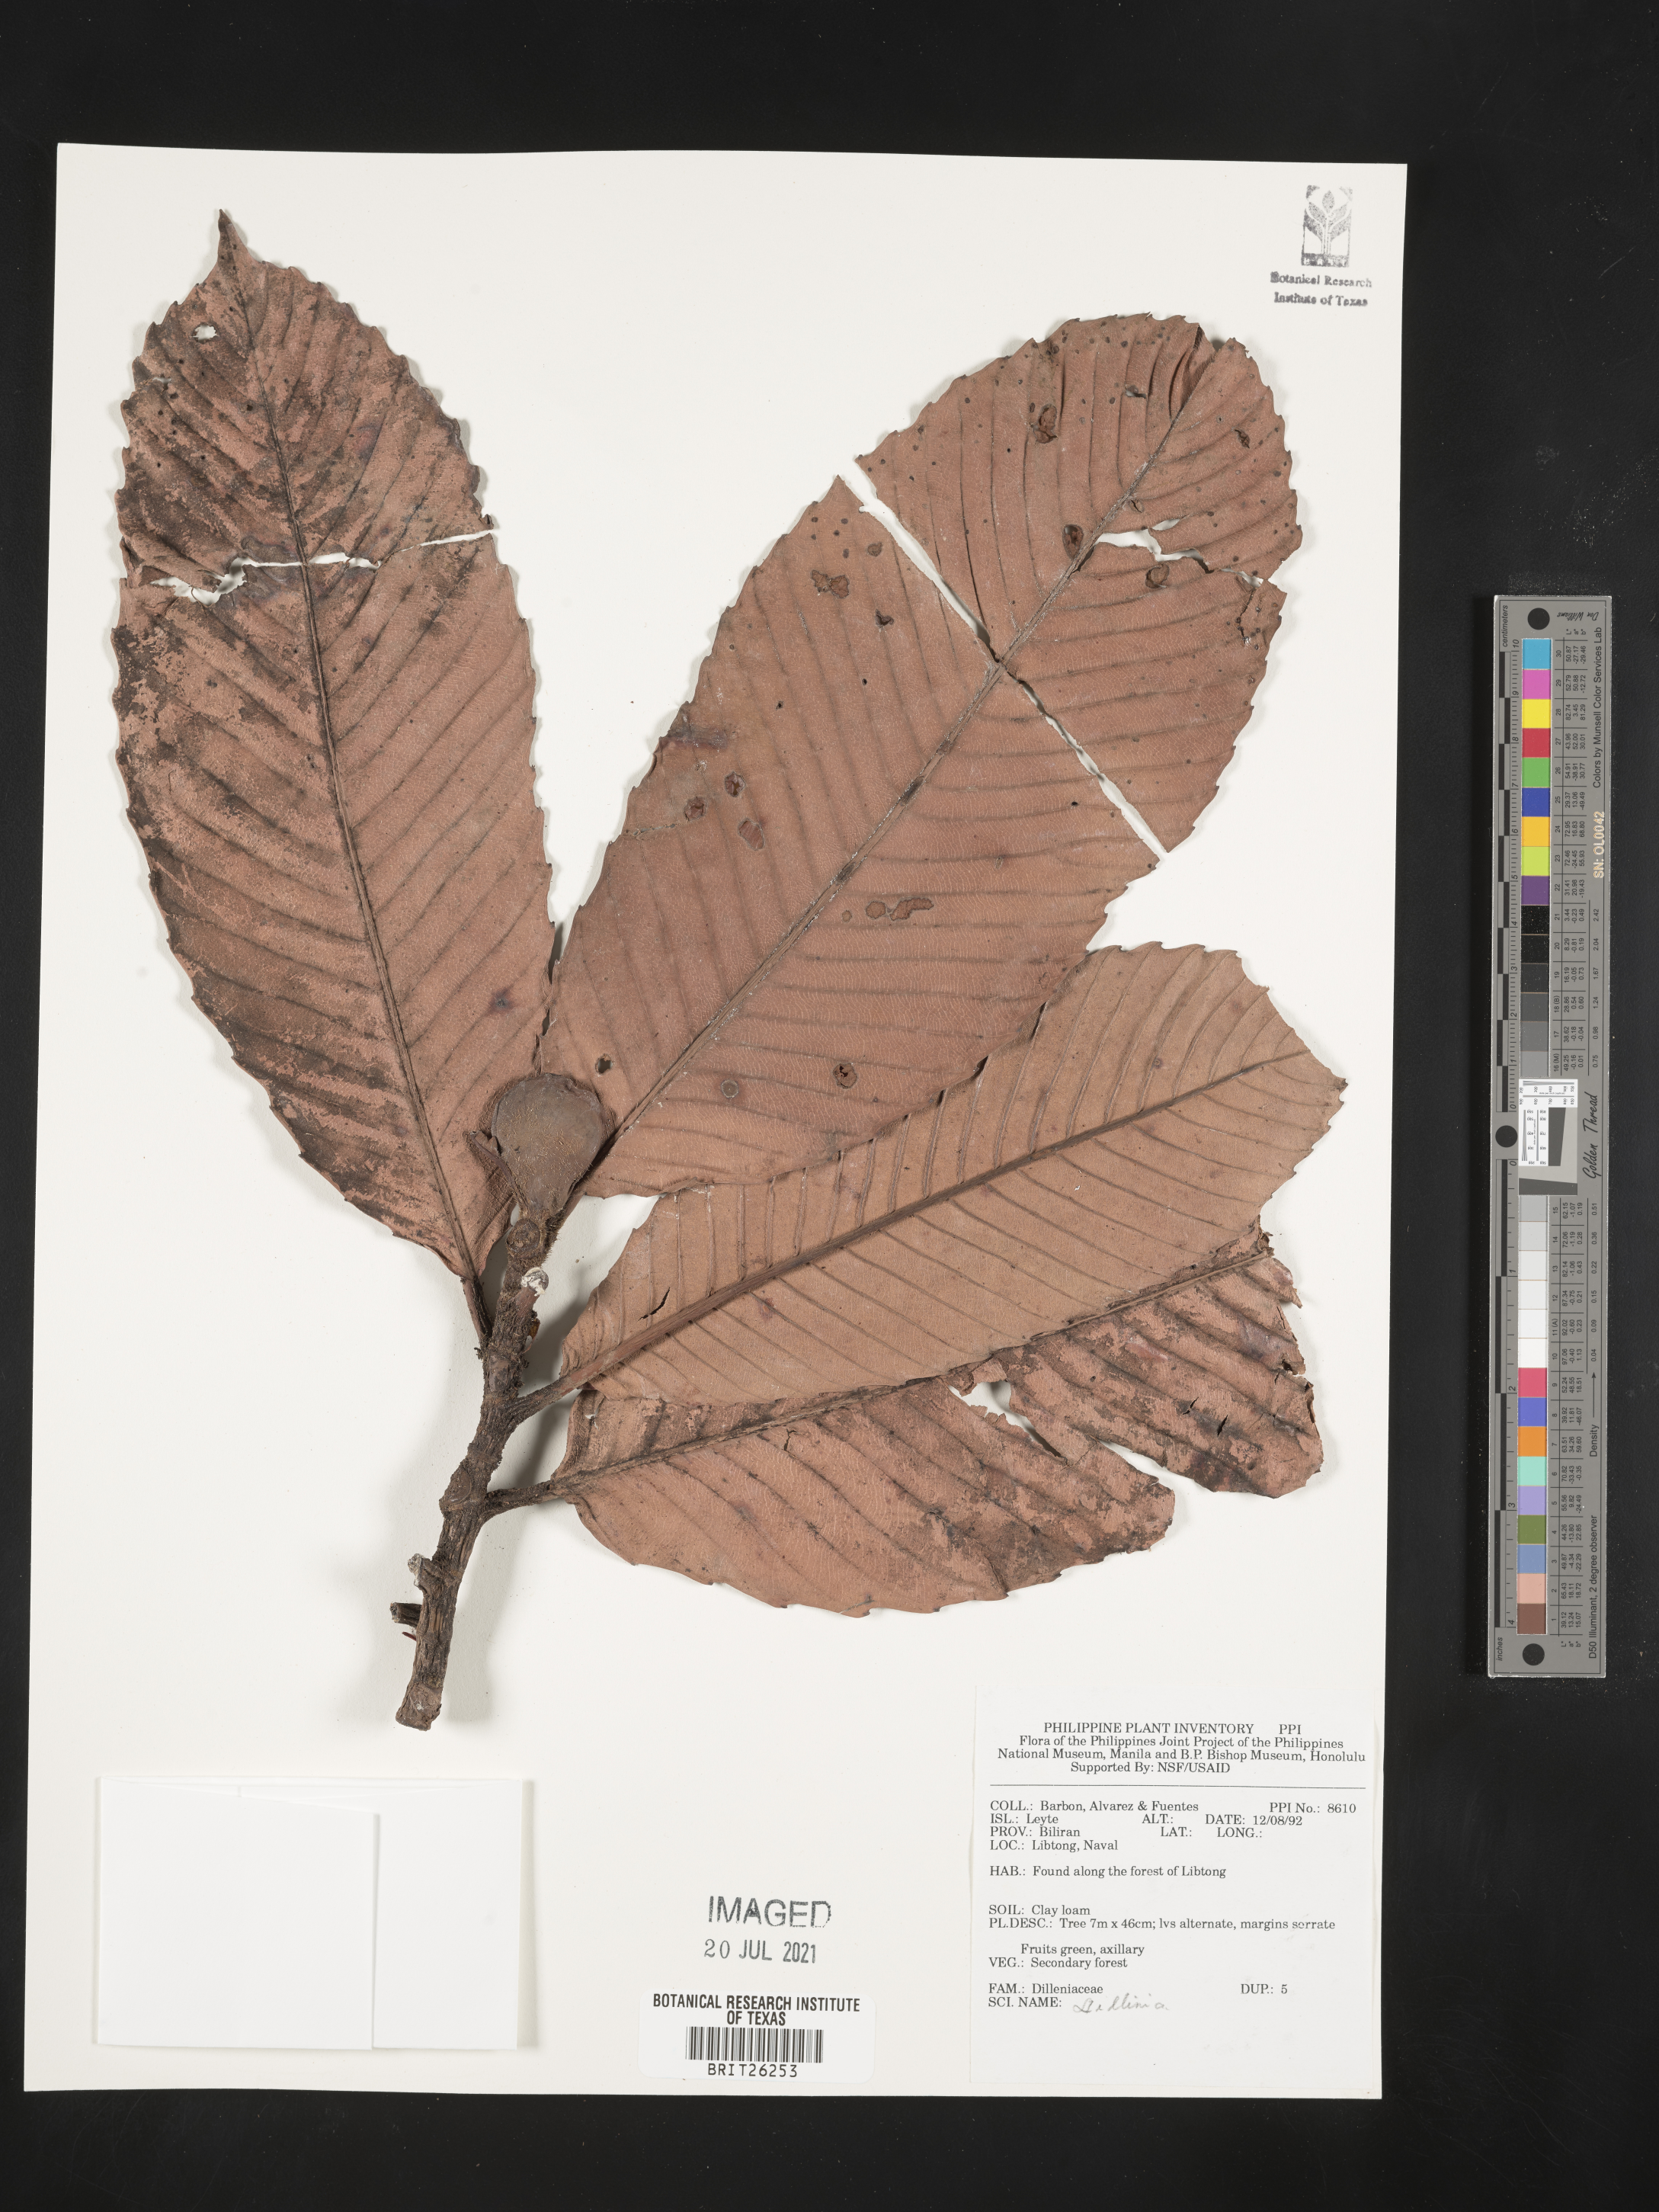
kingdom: Plantae
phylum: Tracheophyta
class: Magnoliopsida
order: Dilleniales
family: Dilleniaceae
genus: Dillenia
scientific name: Dillenia
